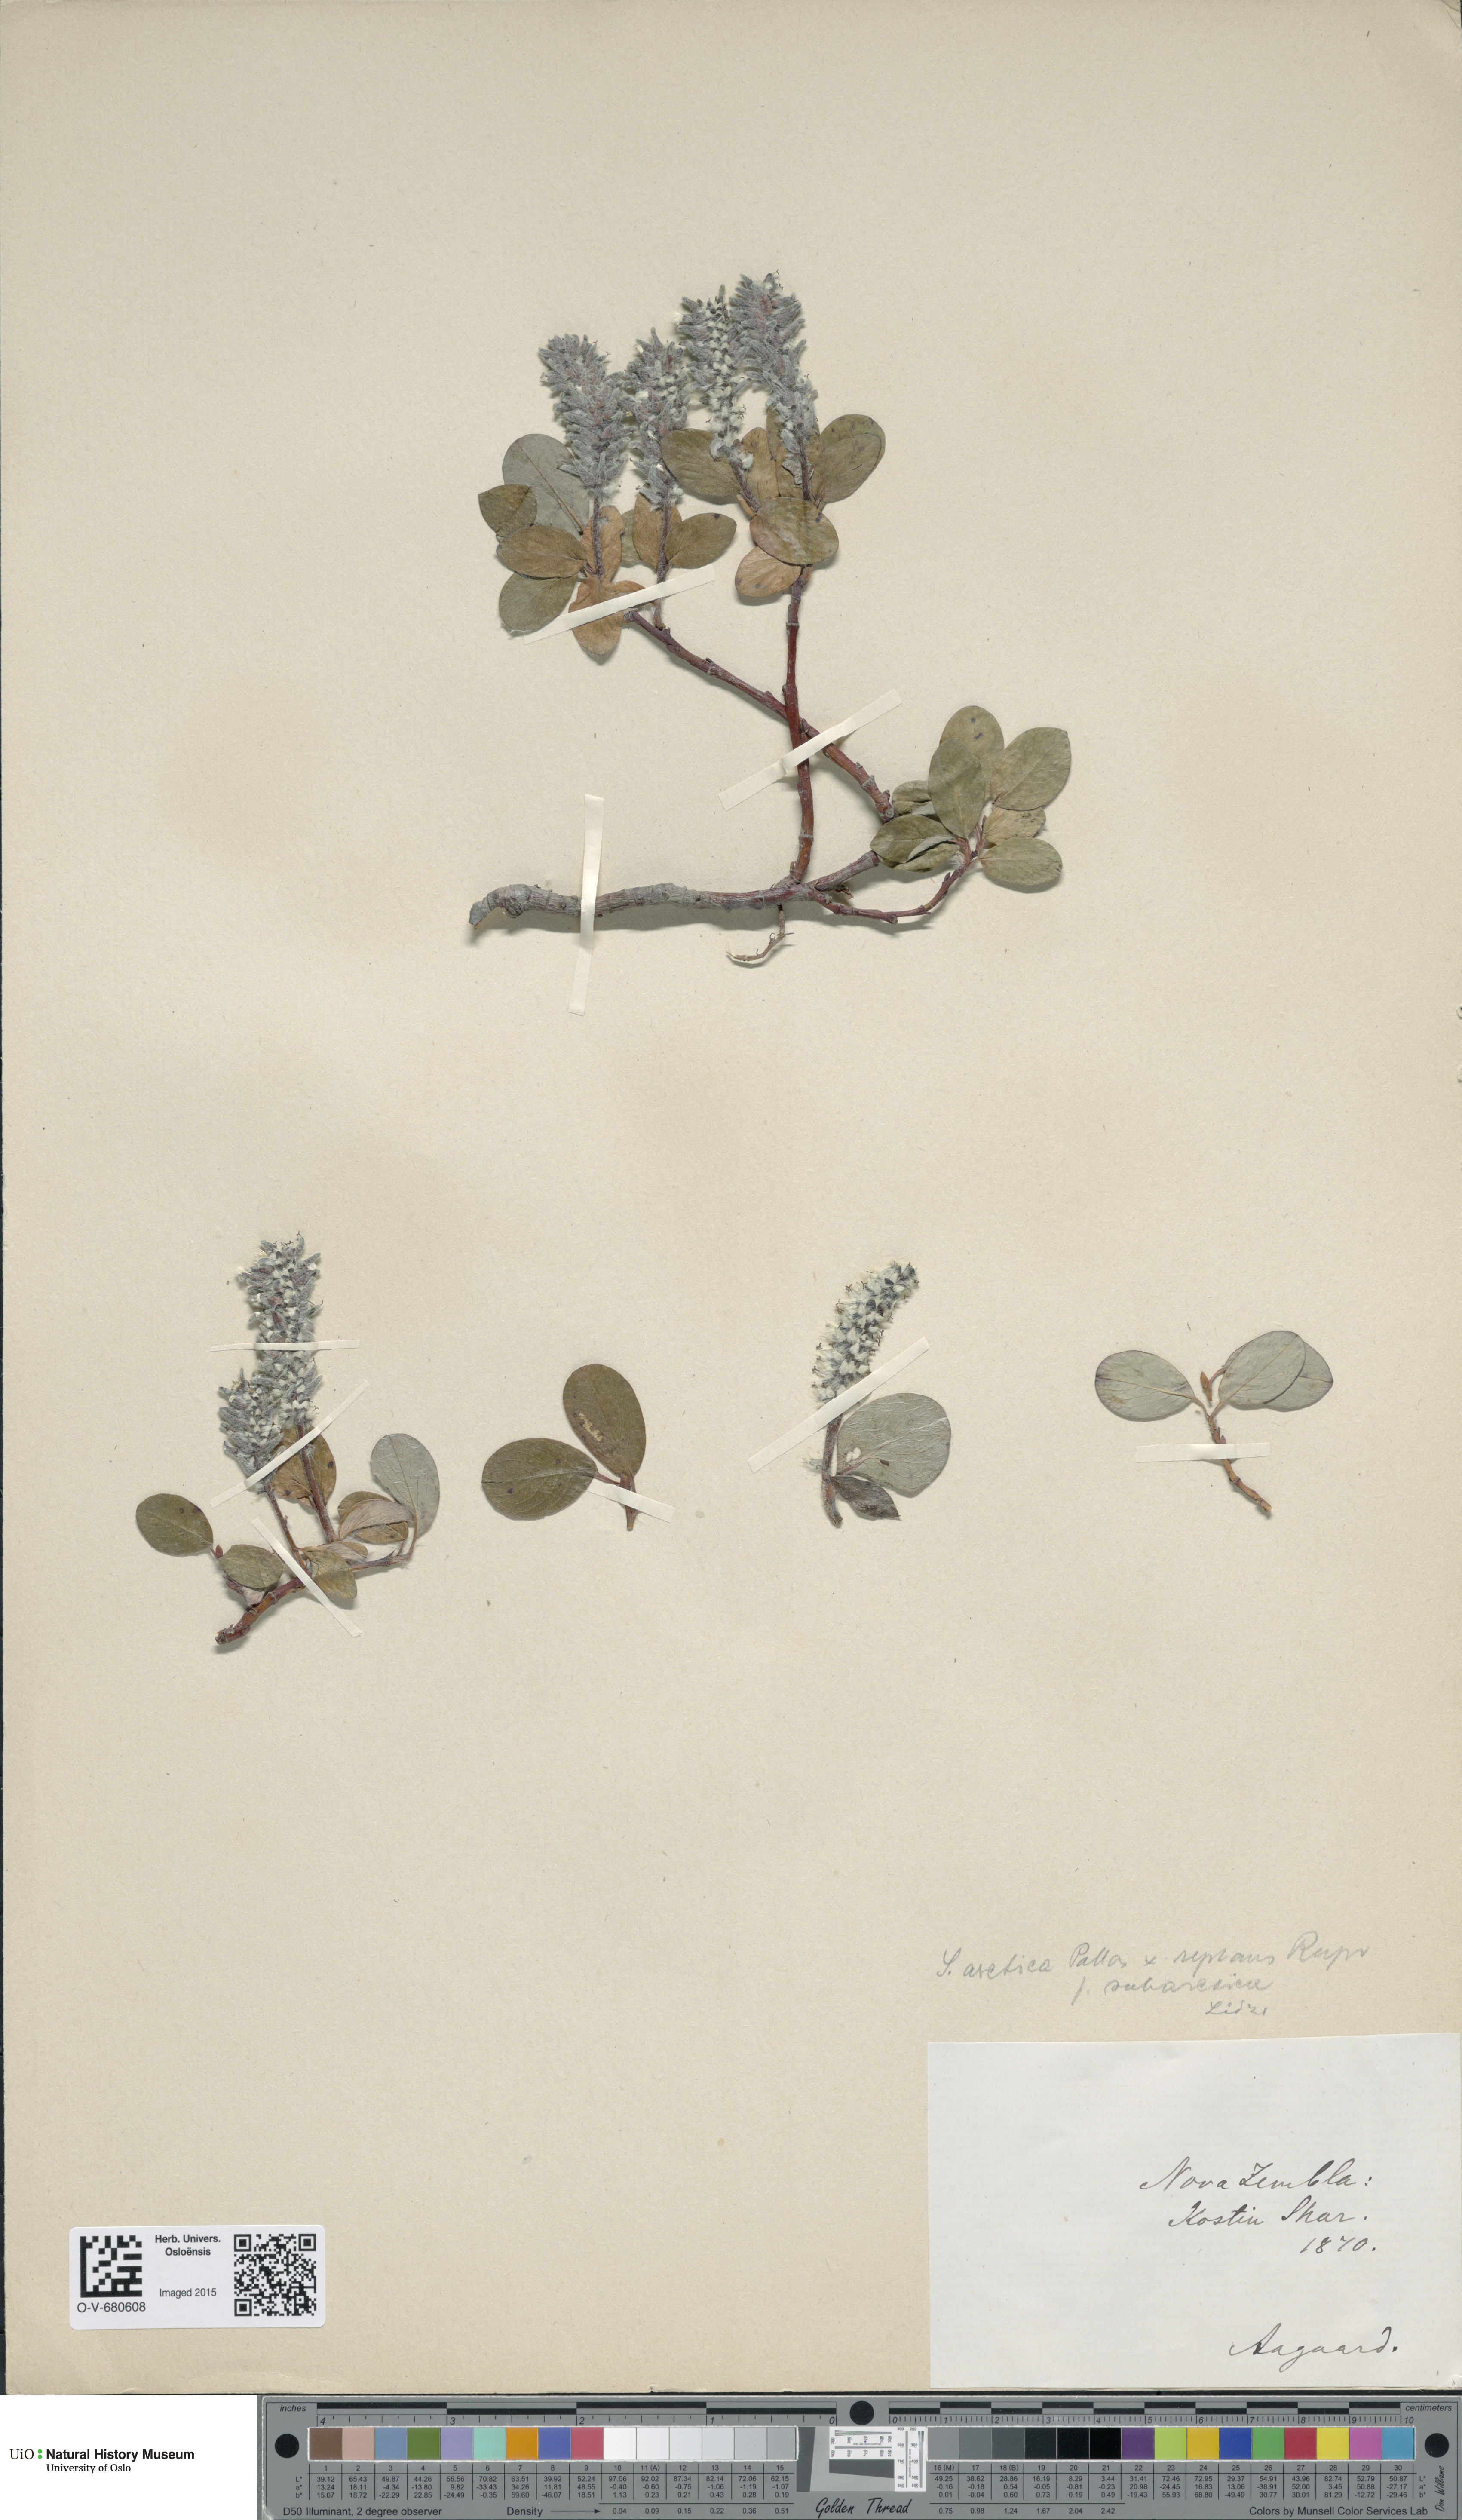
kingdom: Plantae
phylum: Tracheophyta
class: Magnoliopsida
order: Malpighiales
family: Salicaceae
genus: Salix
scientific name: Salix
